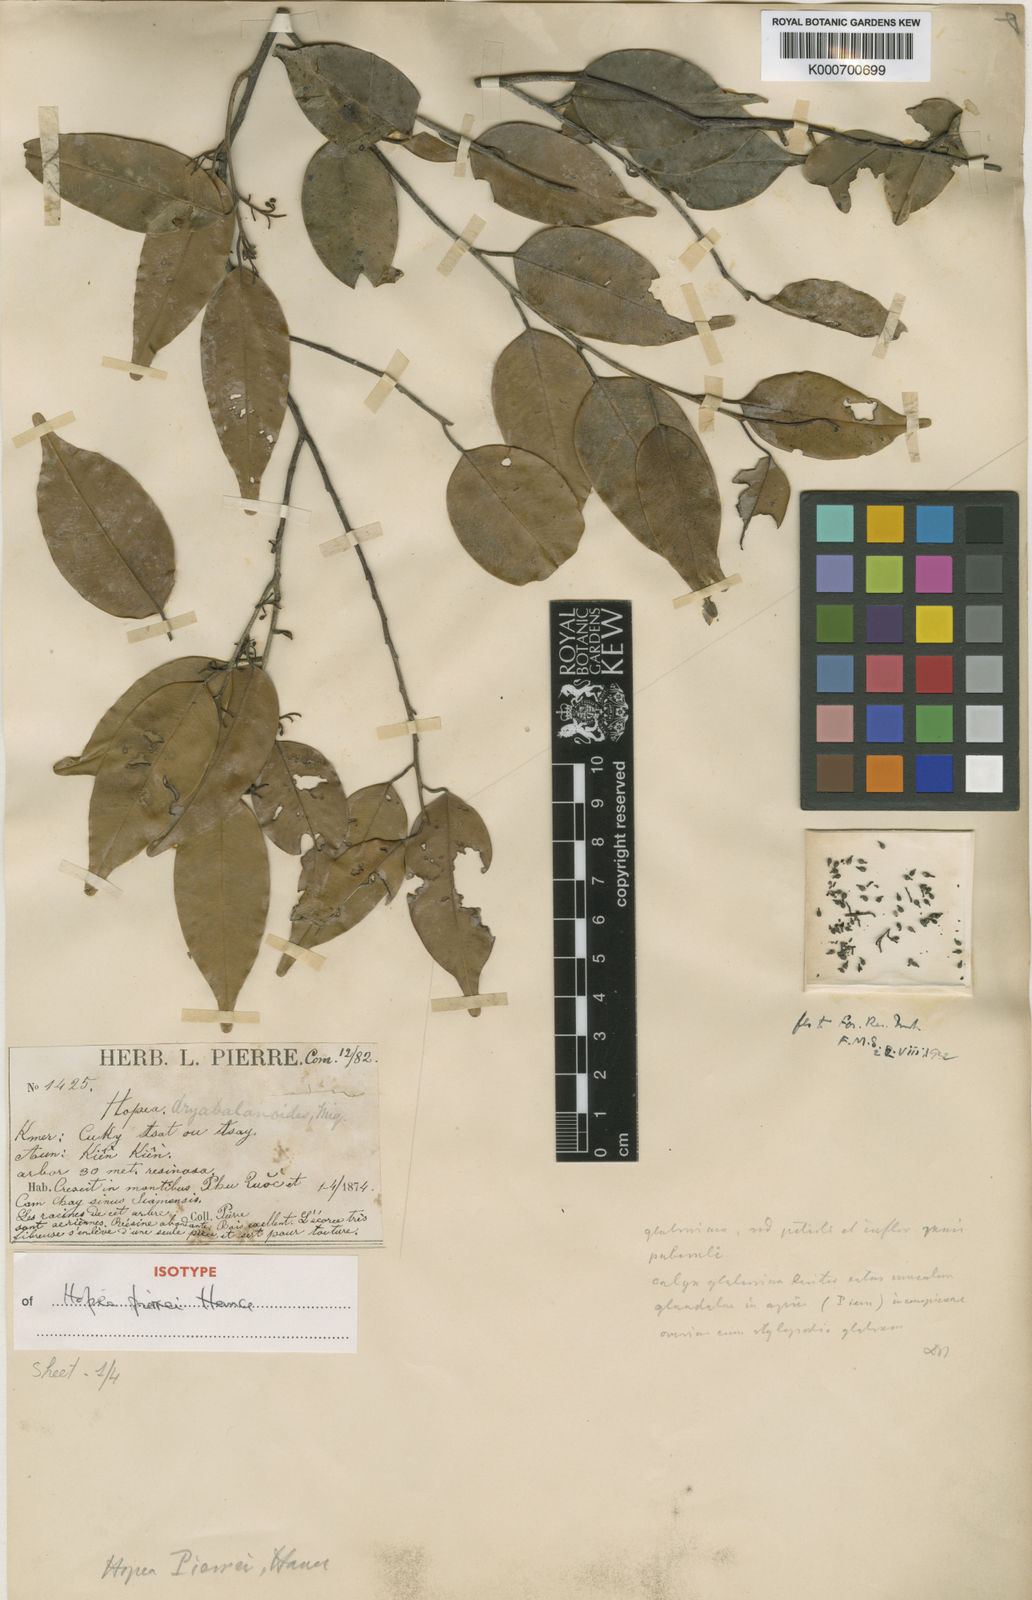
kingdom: Plantae
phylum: Tracheophyta
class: Magnoliopsida
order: Malvales
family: Dipterocarpaceae
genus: Hopea
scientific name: Hopea pierrei
